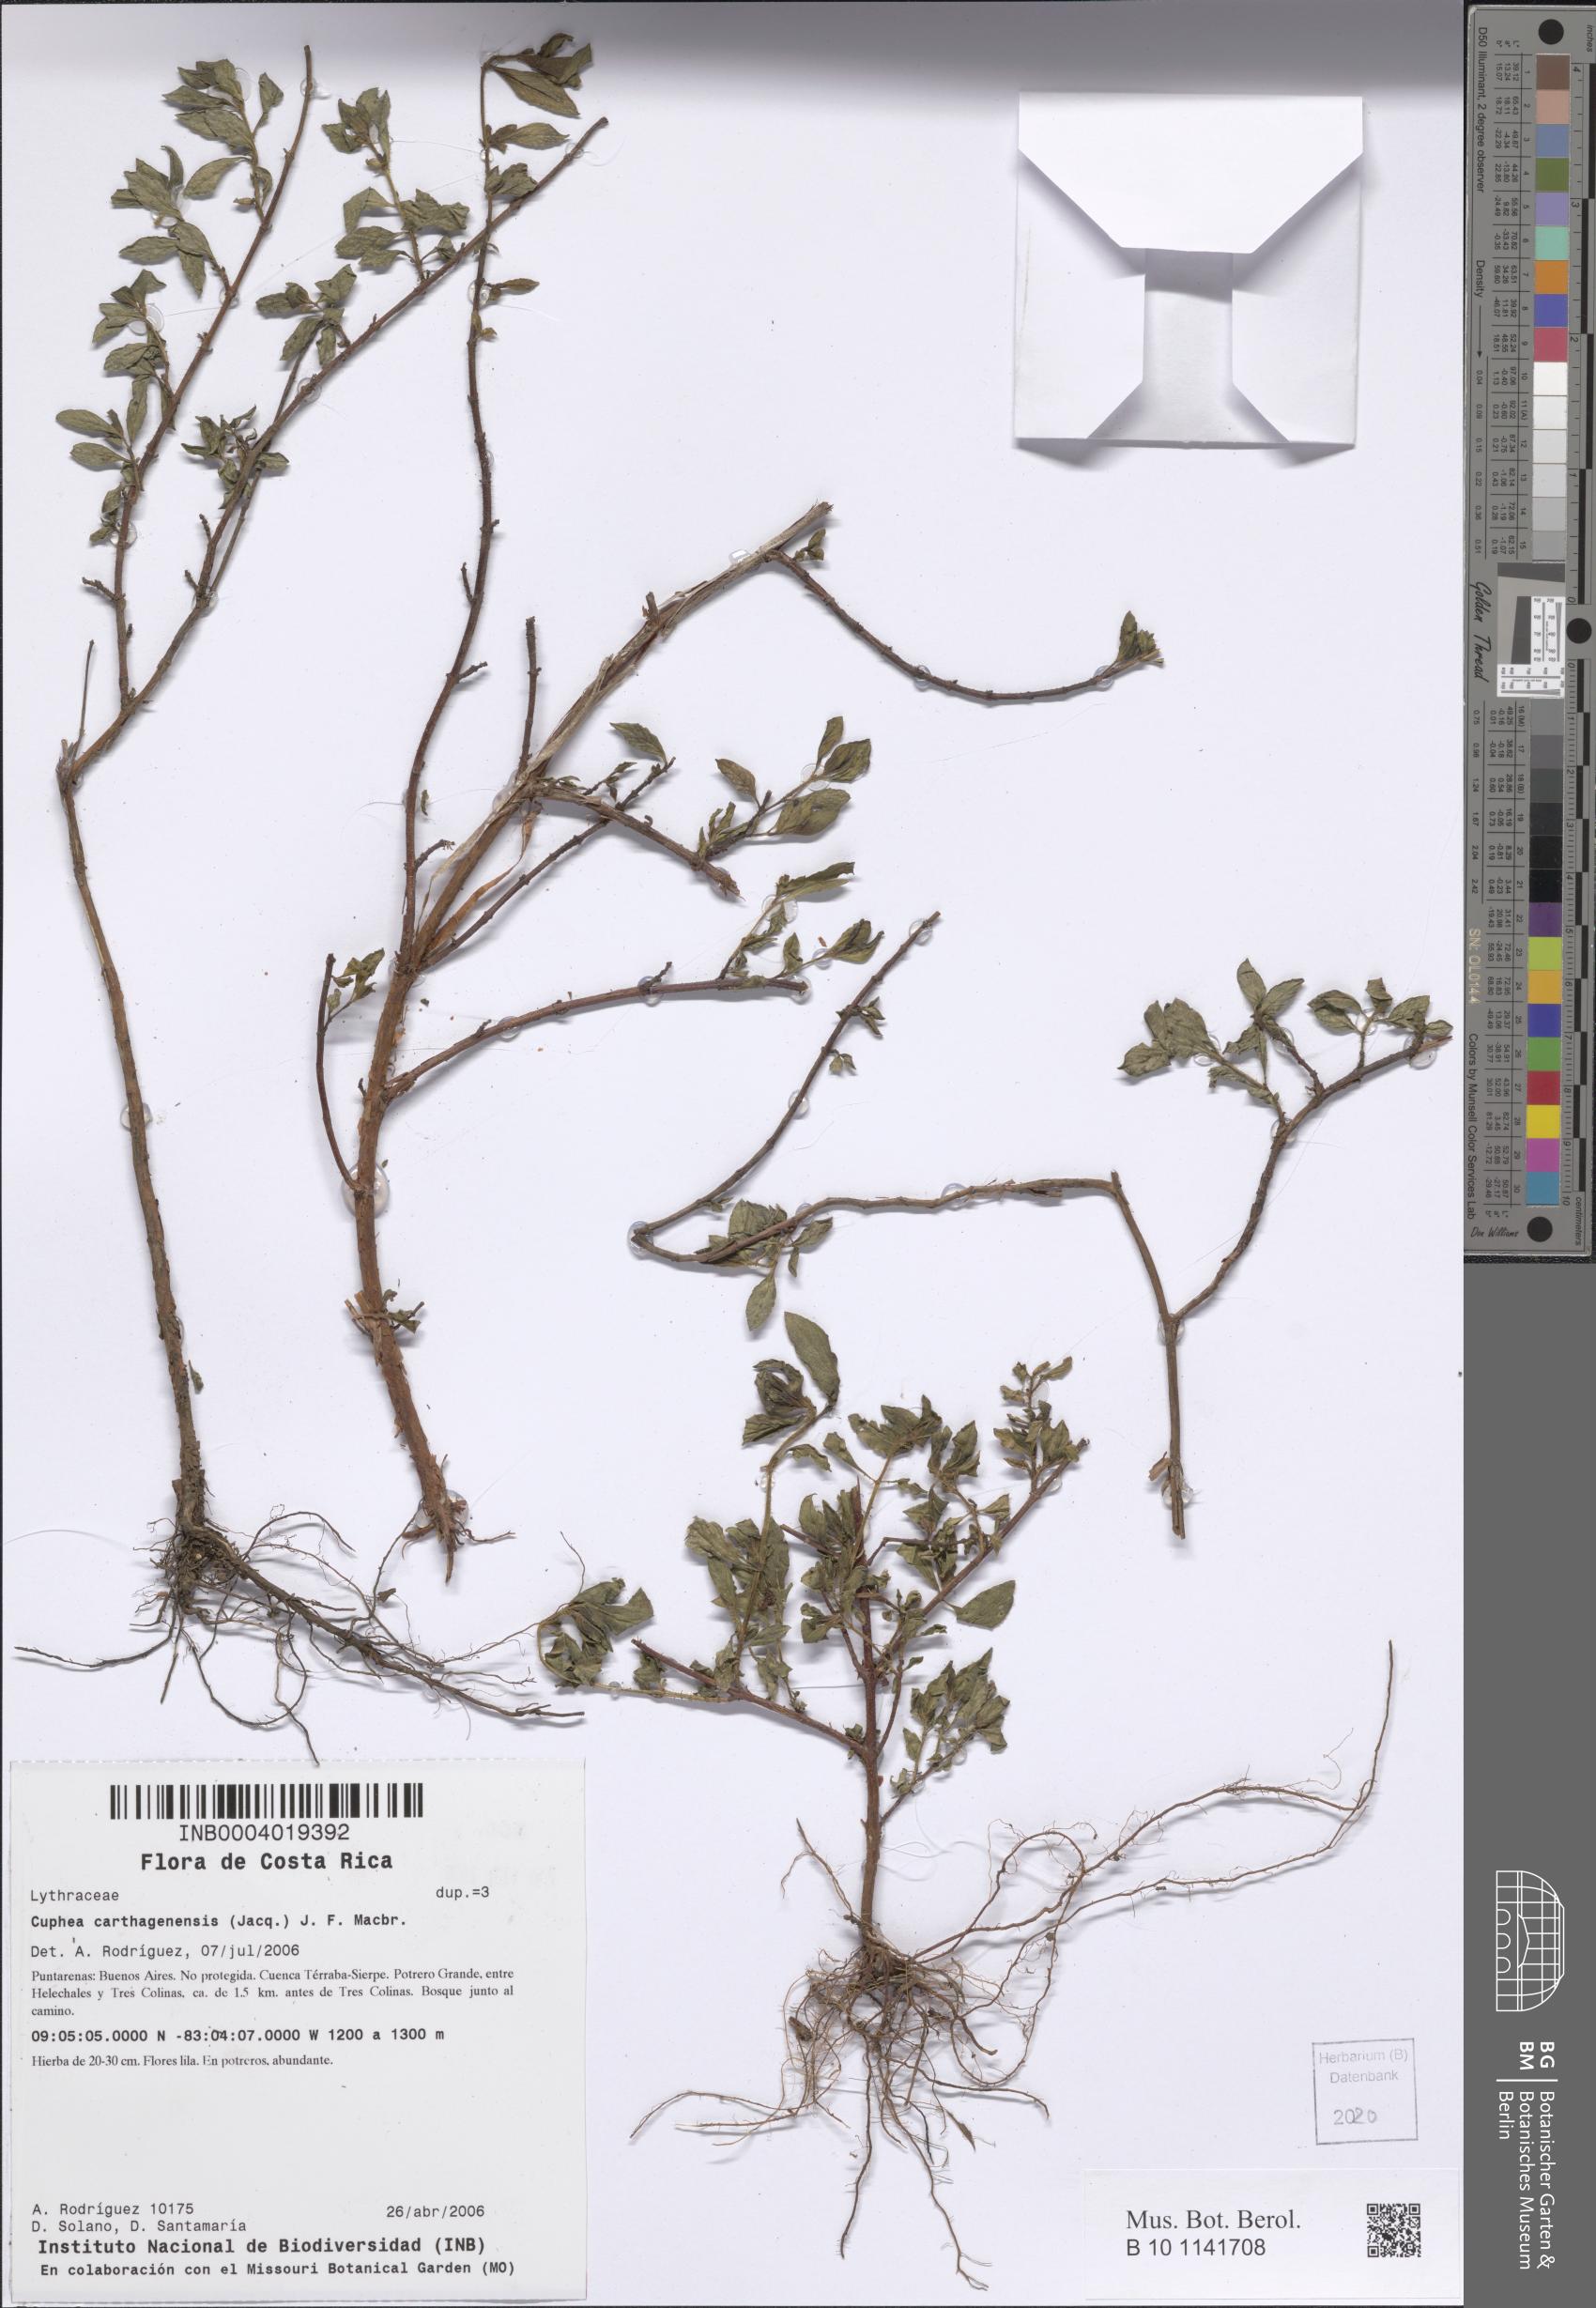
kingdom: Plantae
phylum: Tracheophyta
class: Magnoliopsida
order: Myrtales
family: Lythraceae
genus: Cuphea
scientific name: Cuphea carthagenensis
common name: Colombian waxweed
